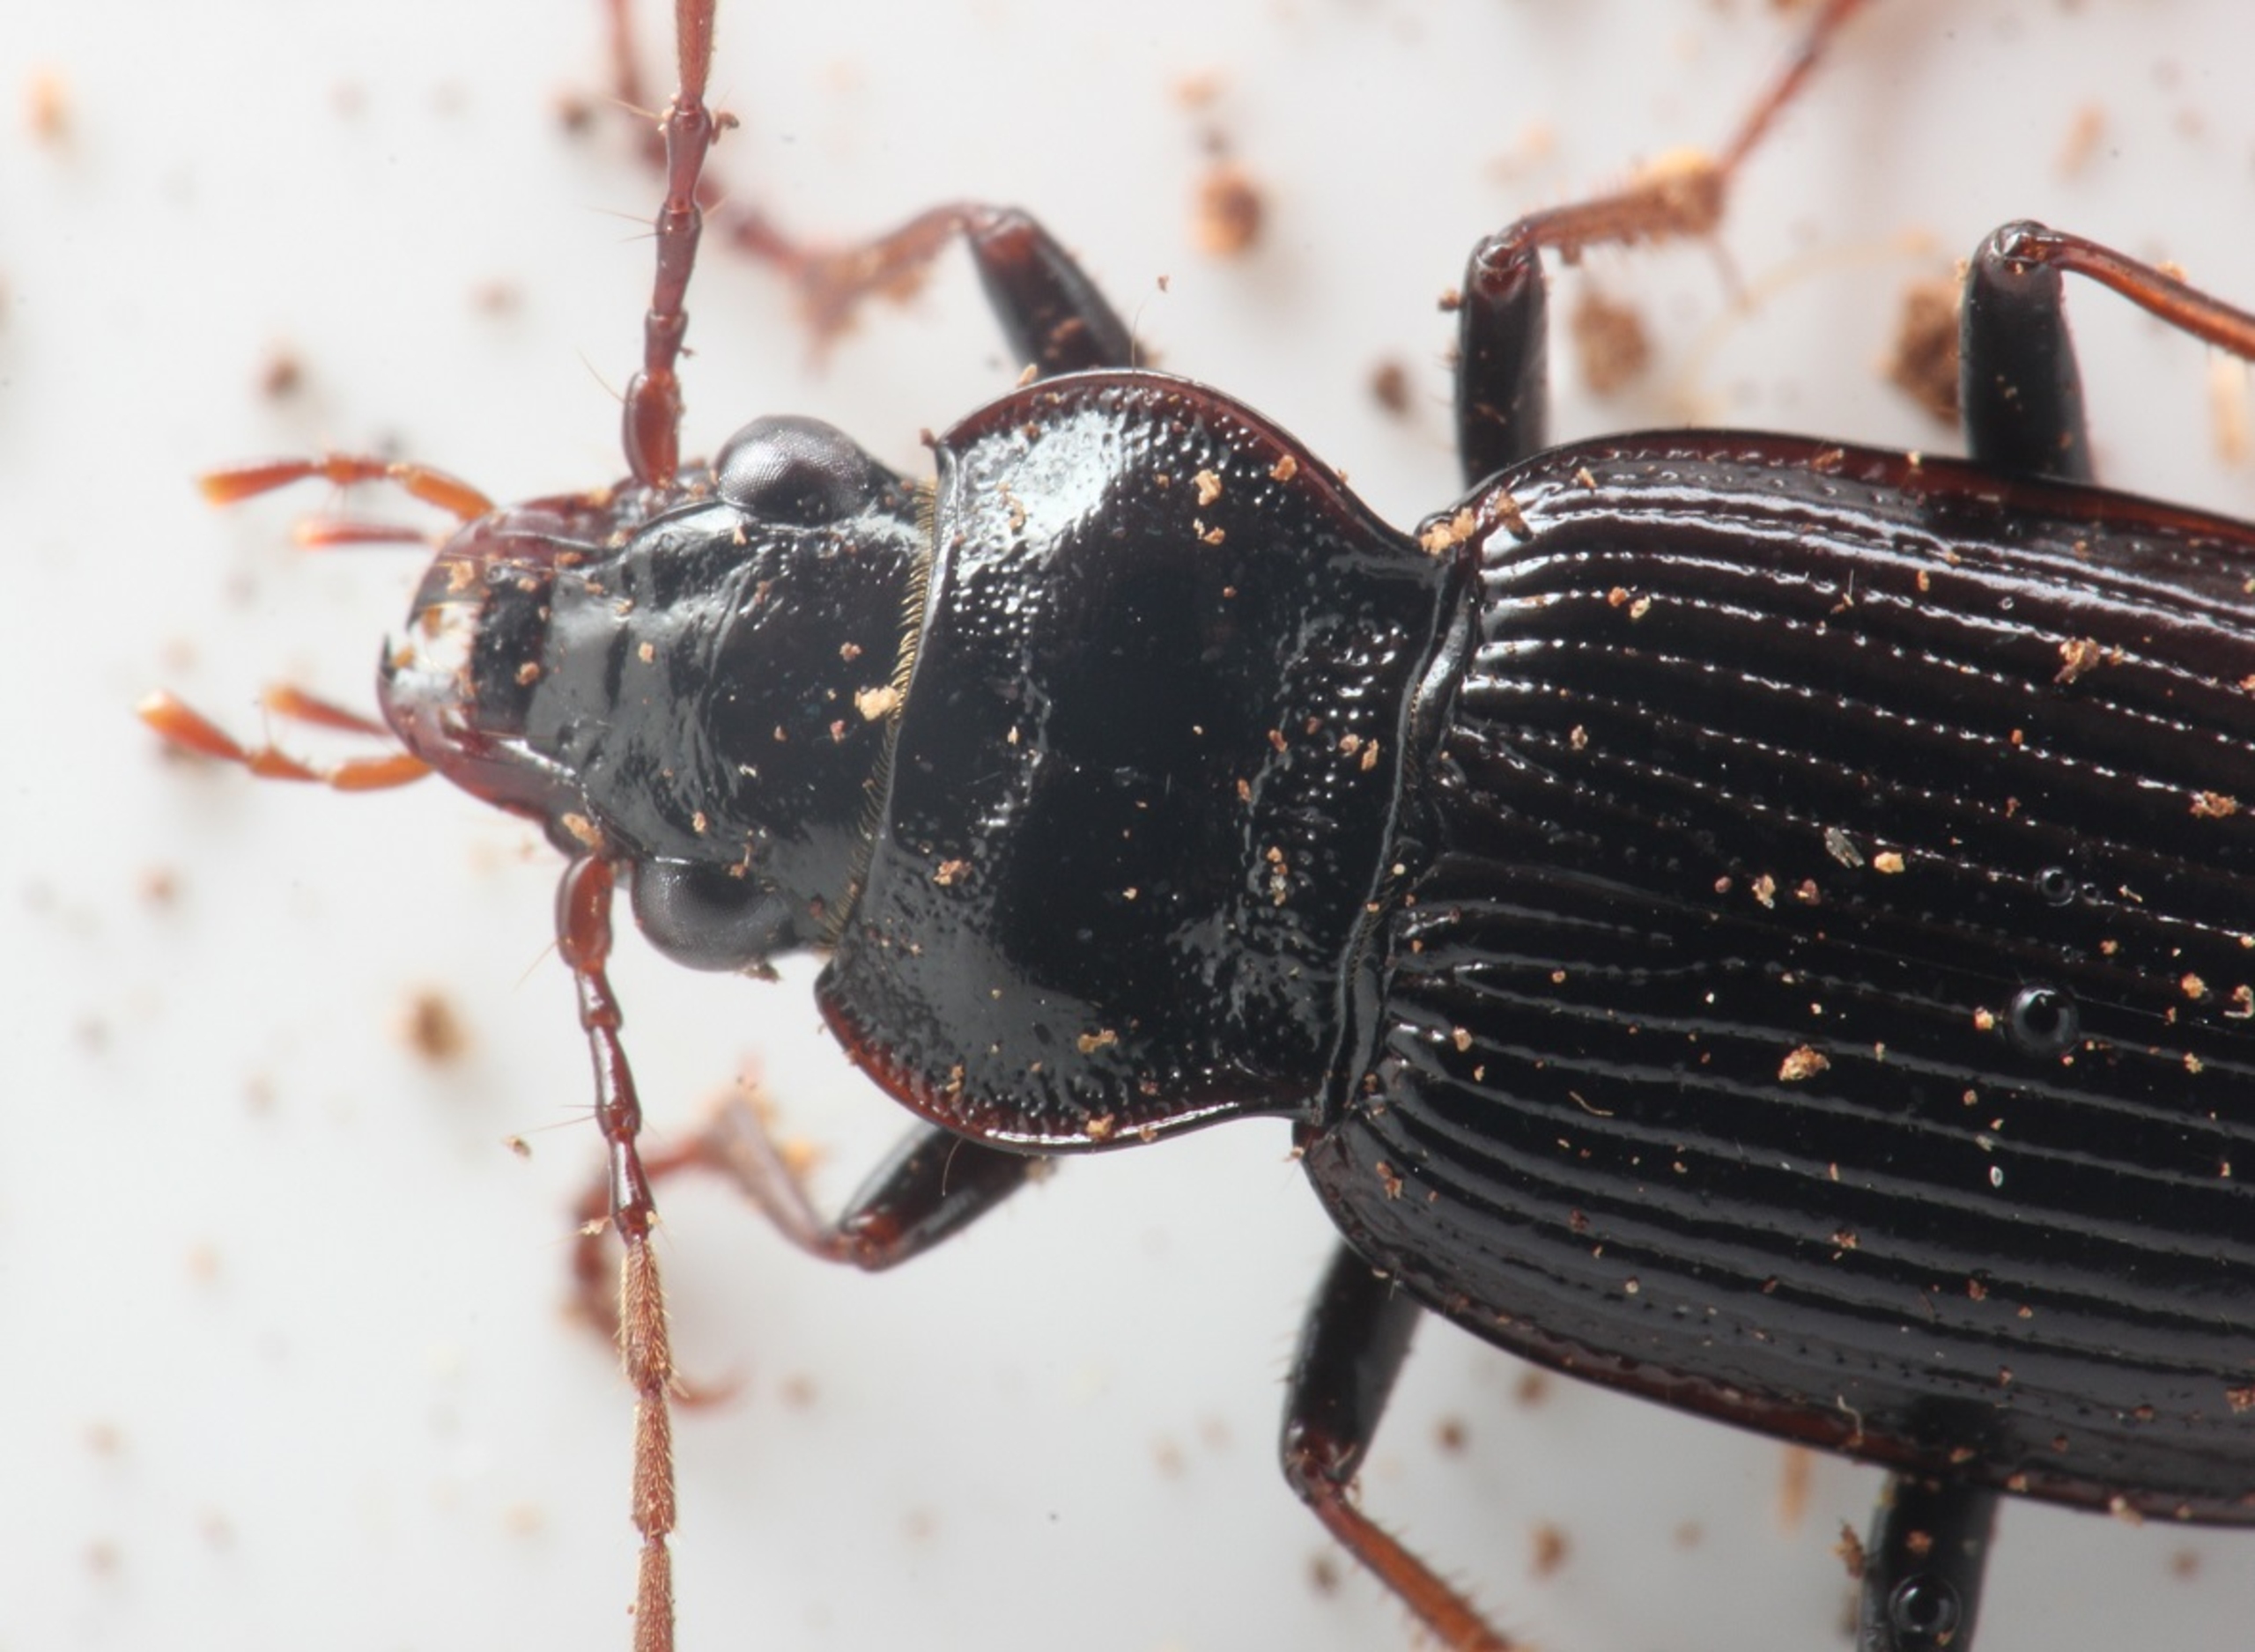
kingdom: Animalia
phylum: Arthropoda
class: Insecta
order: Coleoptera
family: Carabidae
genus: Nebria
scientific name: Nebria brevicollis
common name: Skovfladløber
